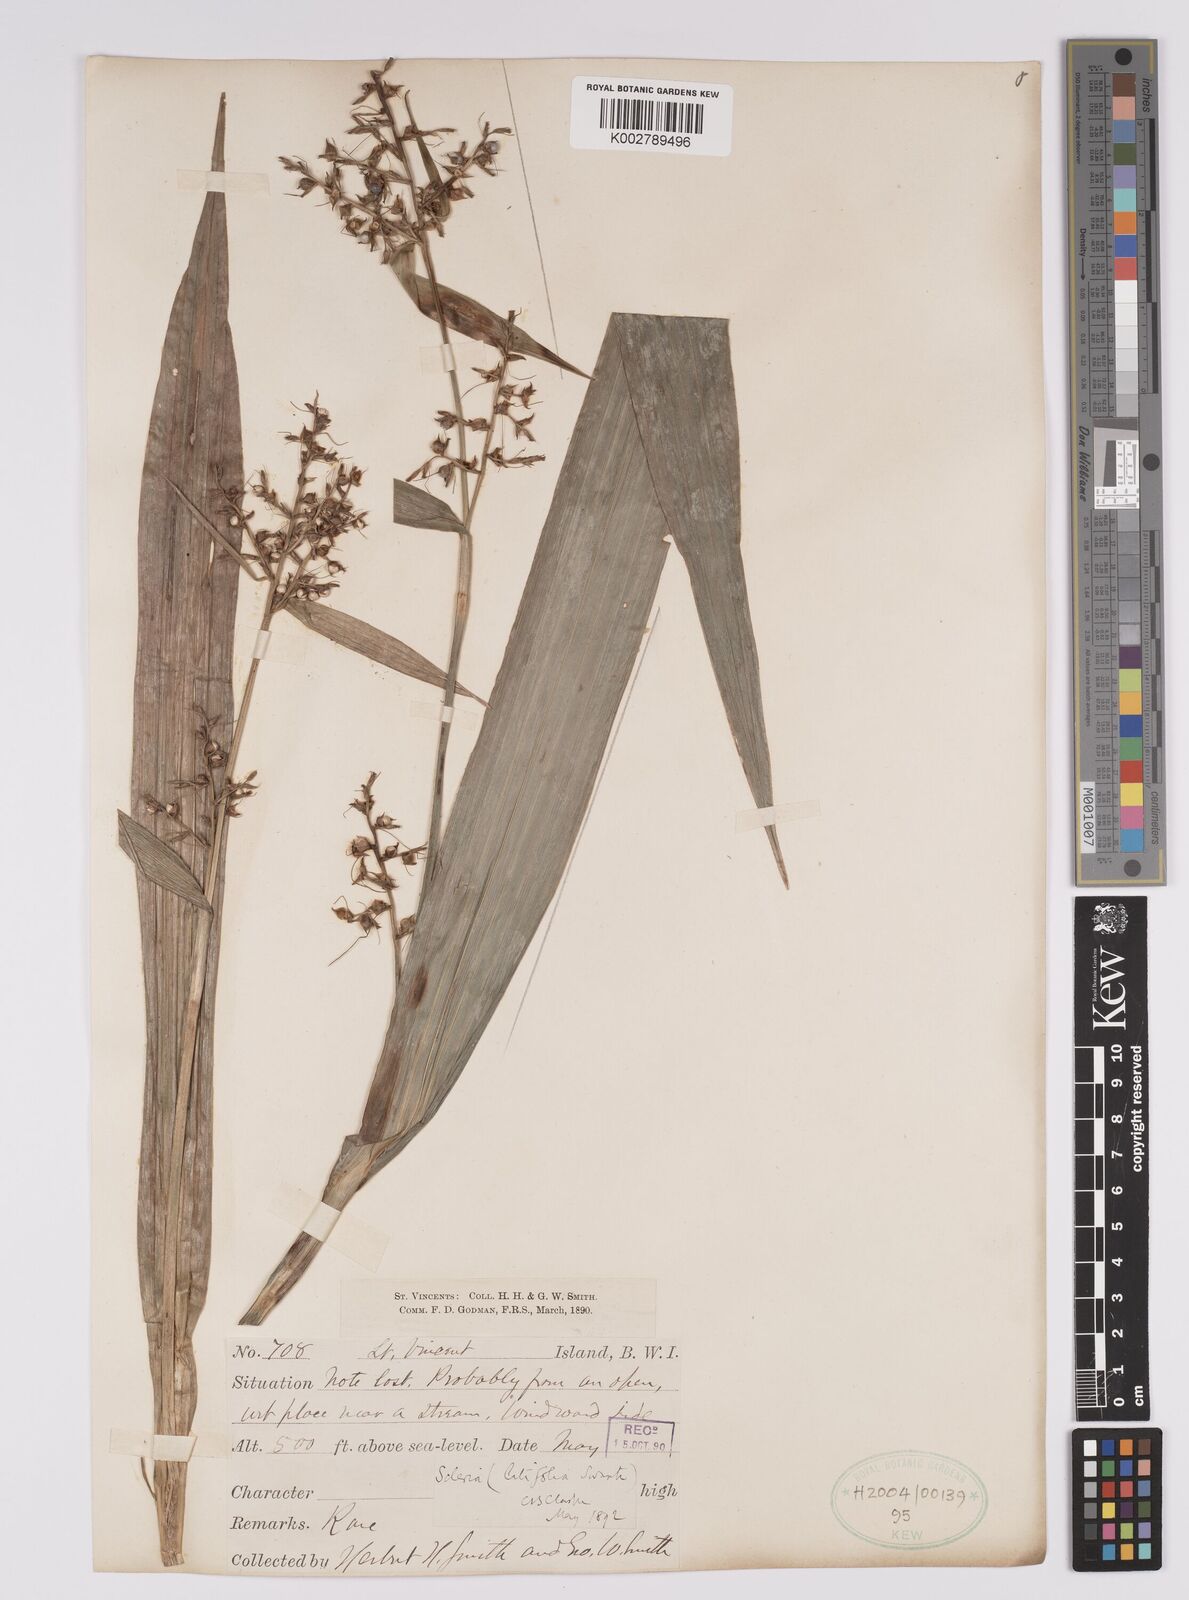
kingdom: Plantae
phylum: Tracheophyta
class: Liliopsida
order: Poales
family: Cyperaceae
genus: Scleria
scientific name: Scleria latifolia
